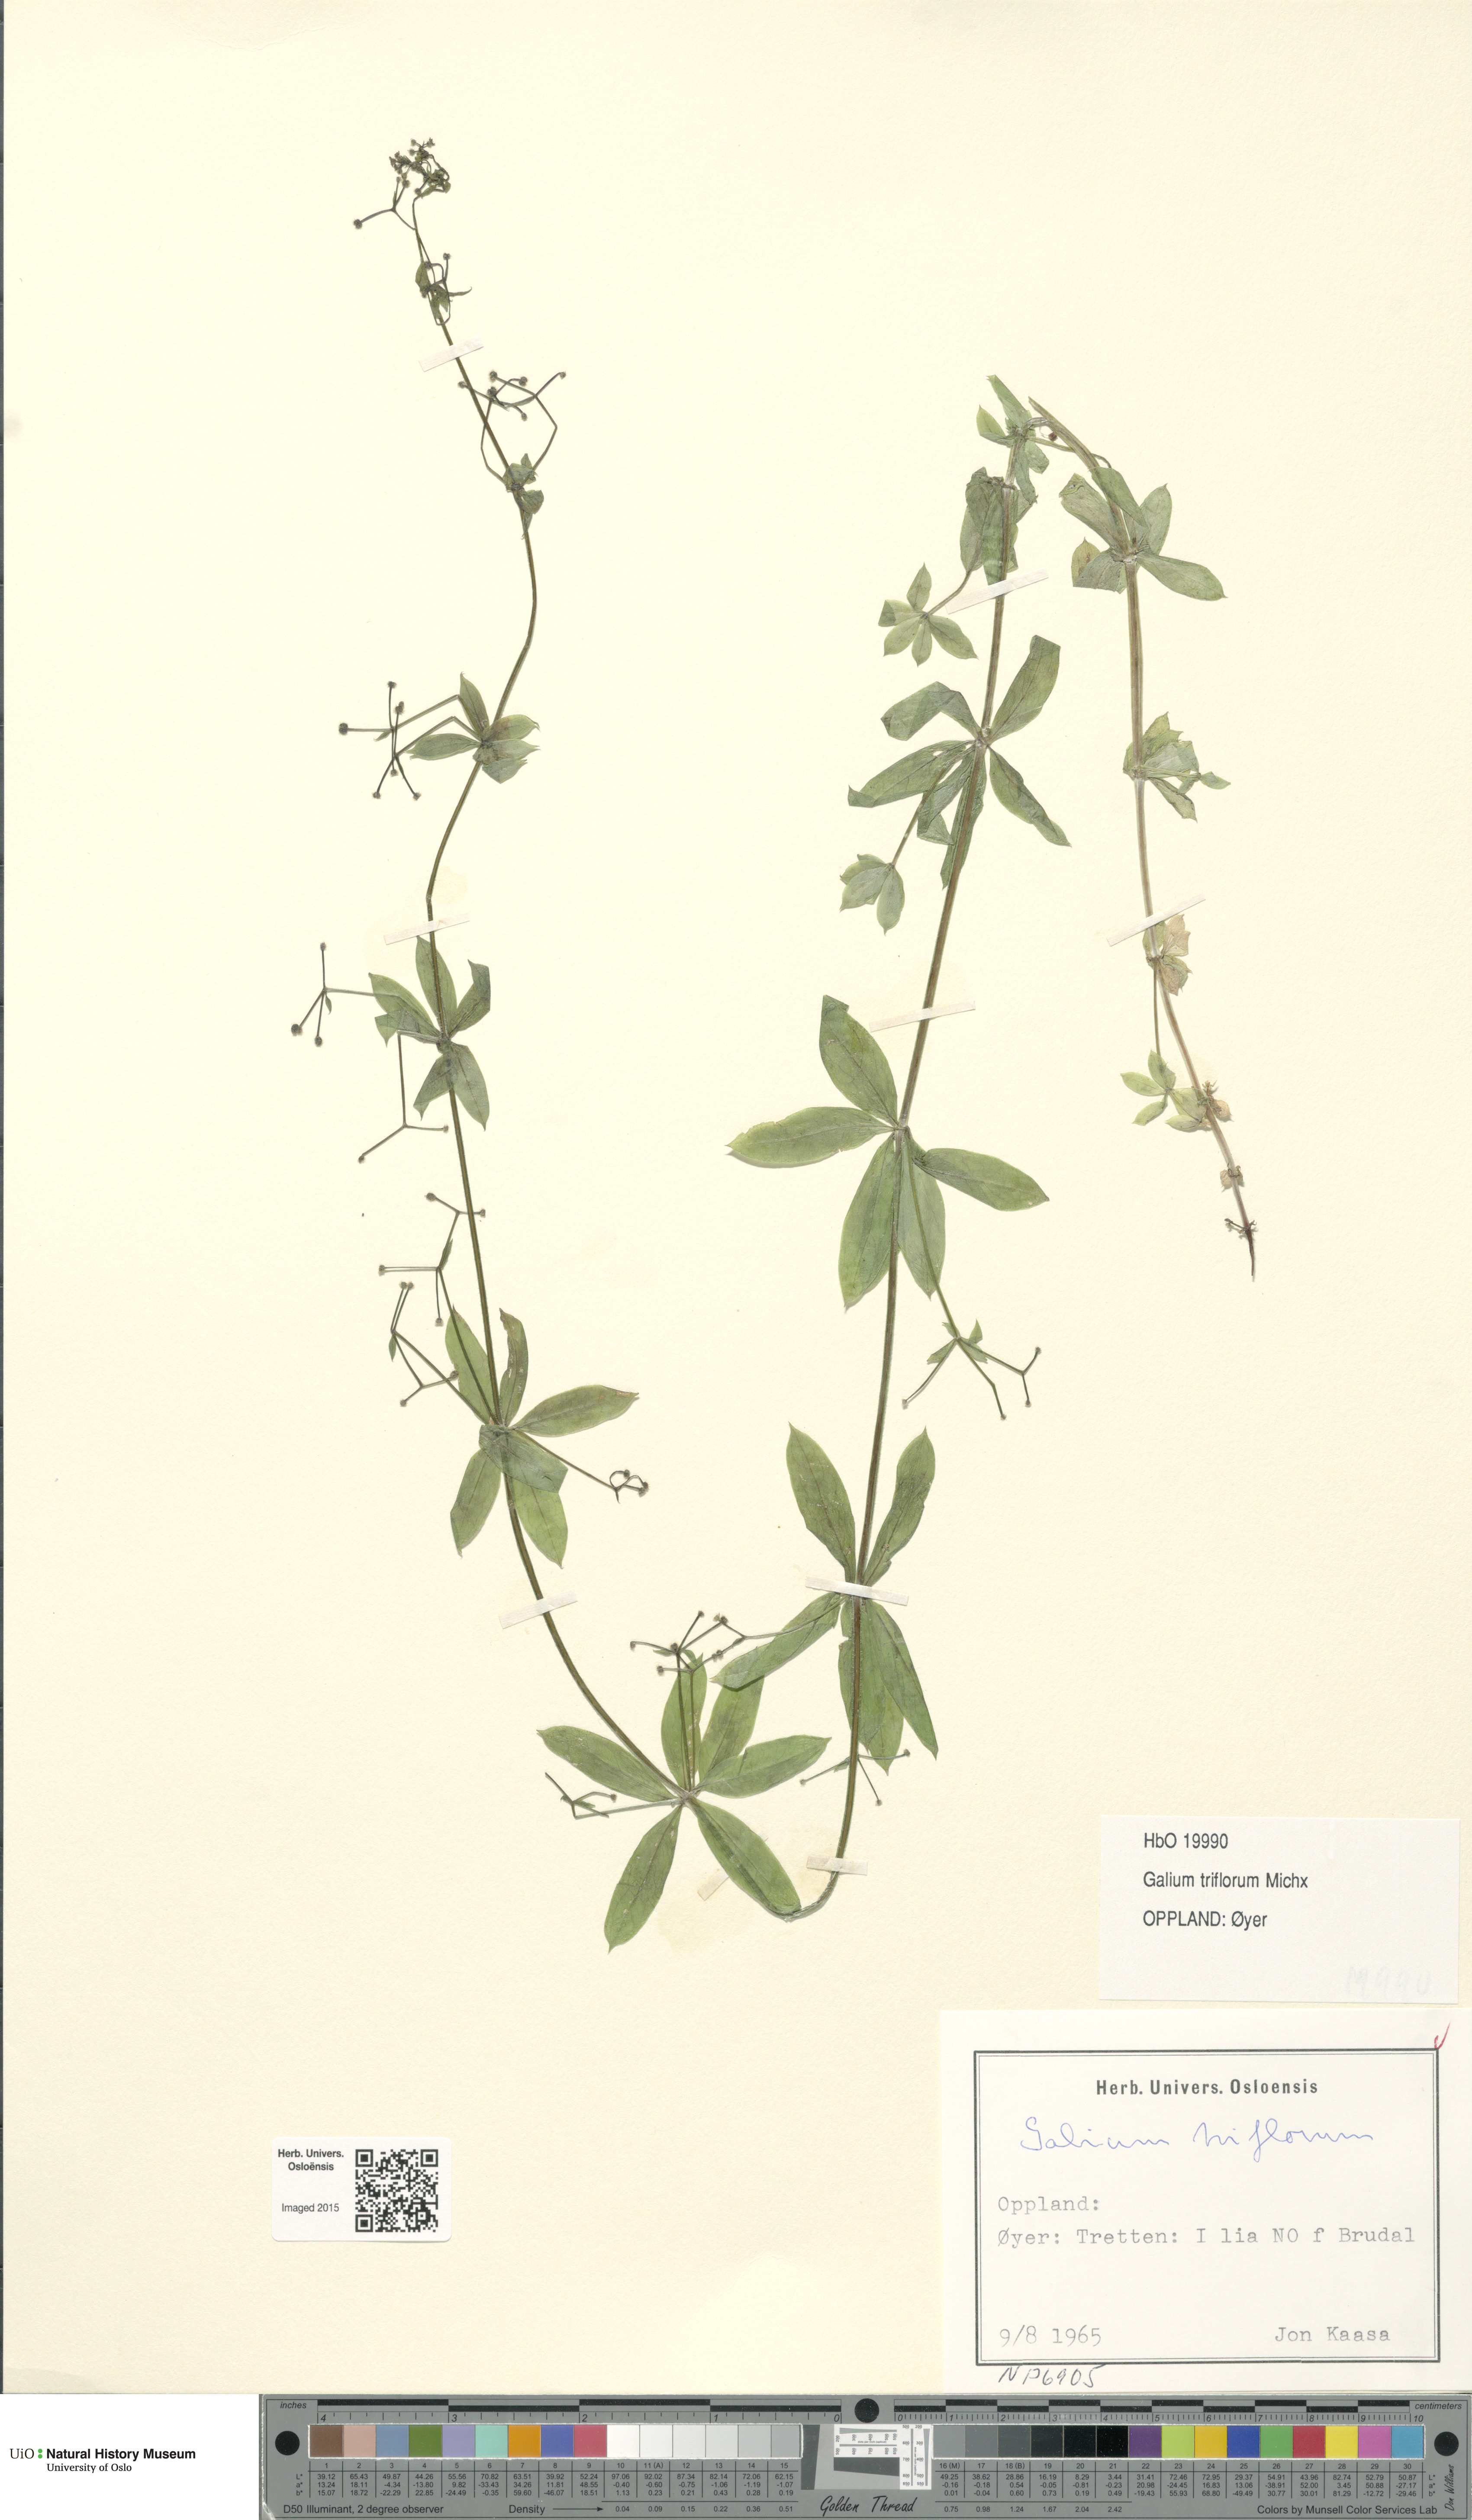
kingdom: Plantae
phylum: Tracheophyta
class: Magnoliopsida
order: Gentianales
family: Rubiaceae
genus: Galium
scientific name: Galium triflorum
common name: Fragrant bedstraw
